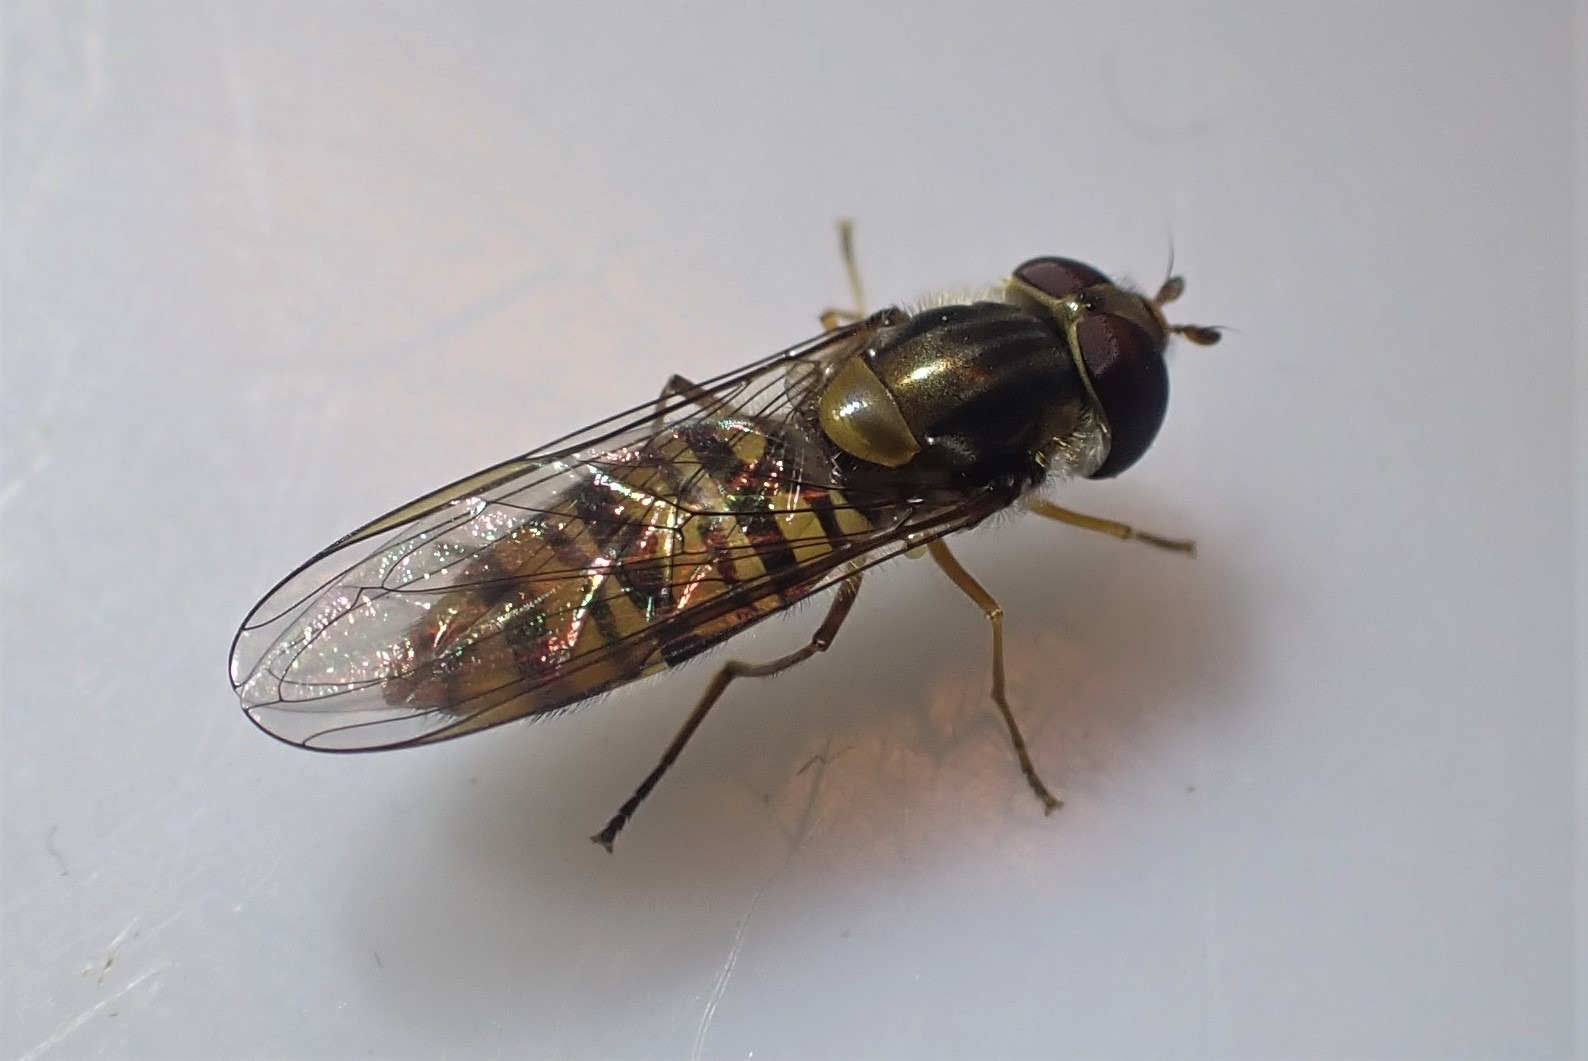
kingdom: Animalia
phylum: Arthropoda
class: Insecta
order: Diptera
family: Syrphidae
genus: Episyrphus
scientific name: Episyrphus balteatus
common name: Dobbeltbåndet svirreflue
